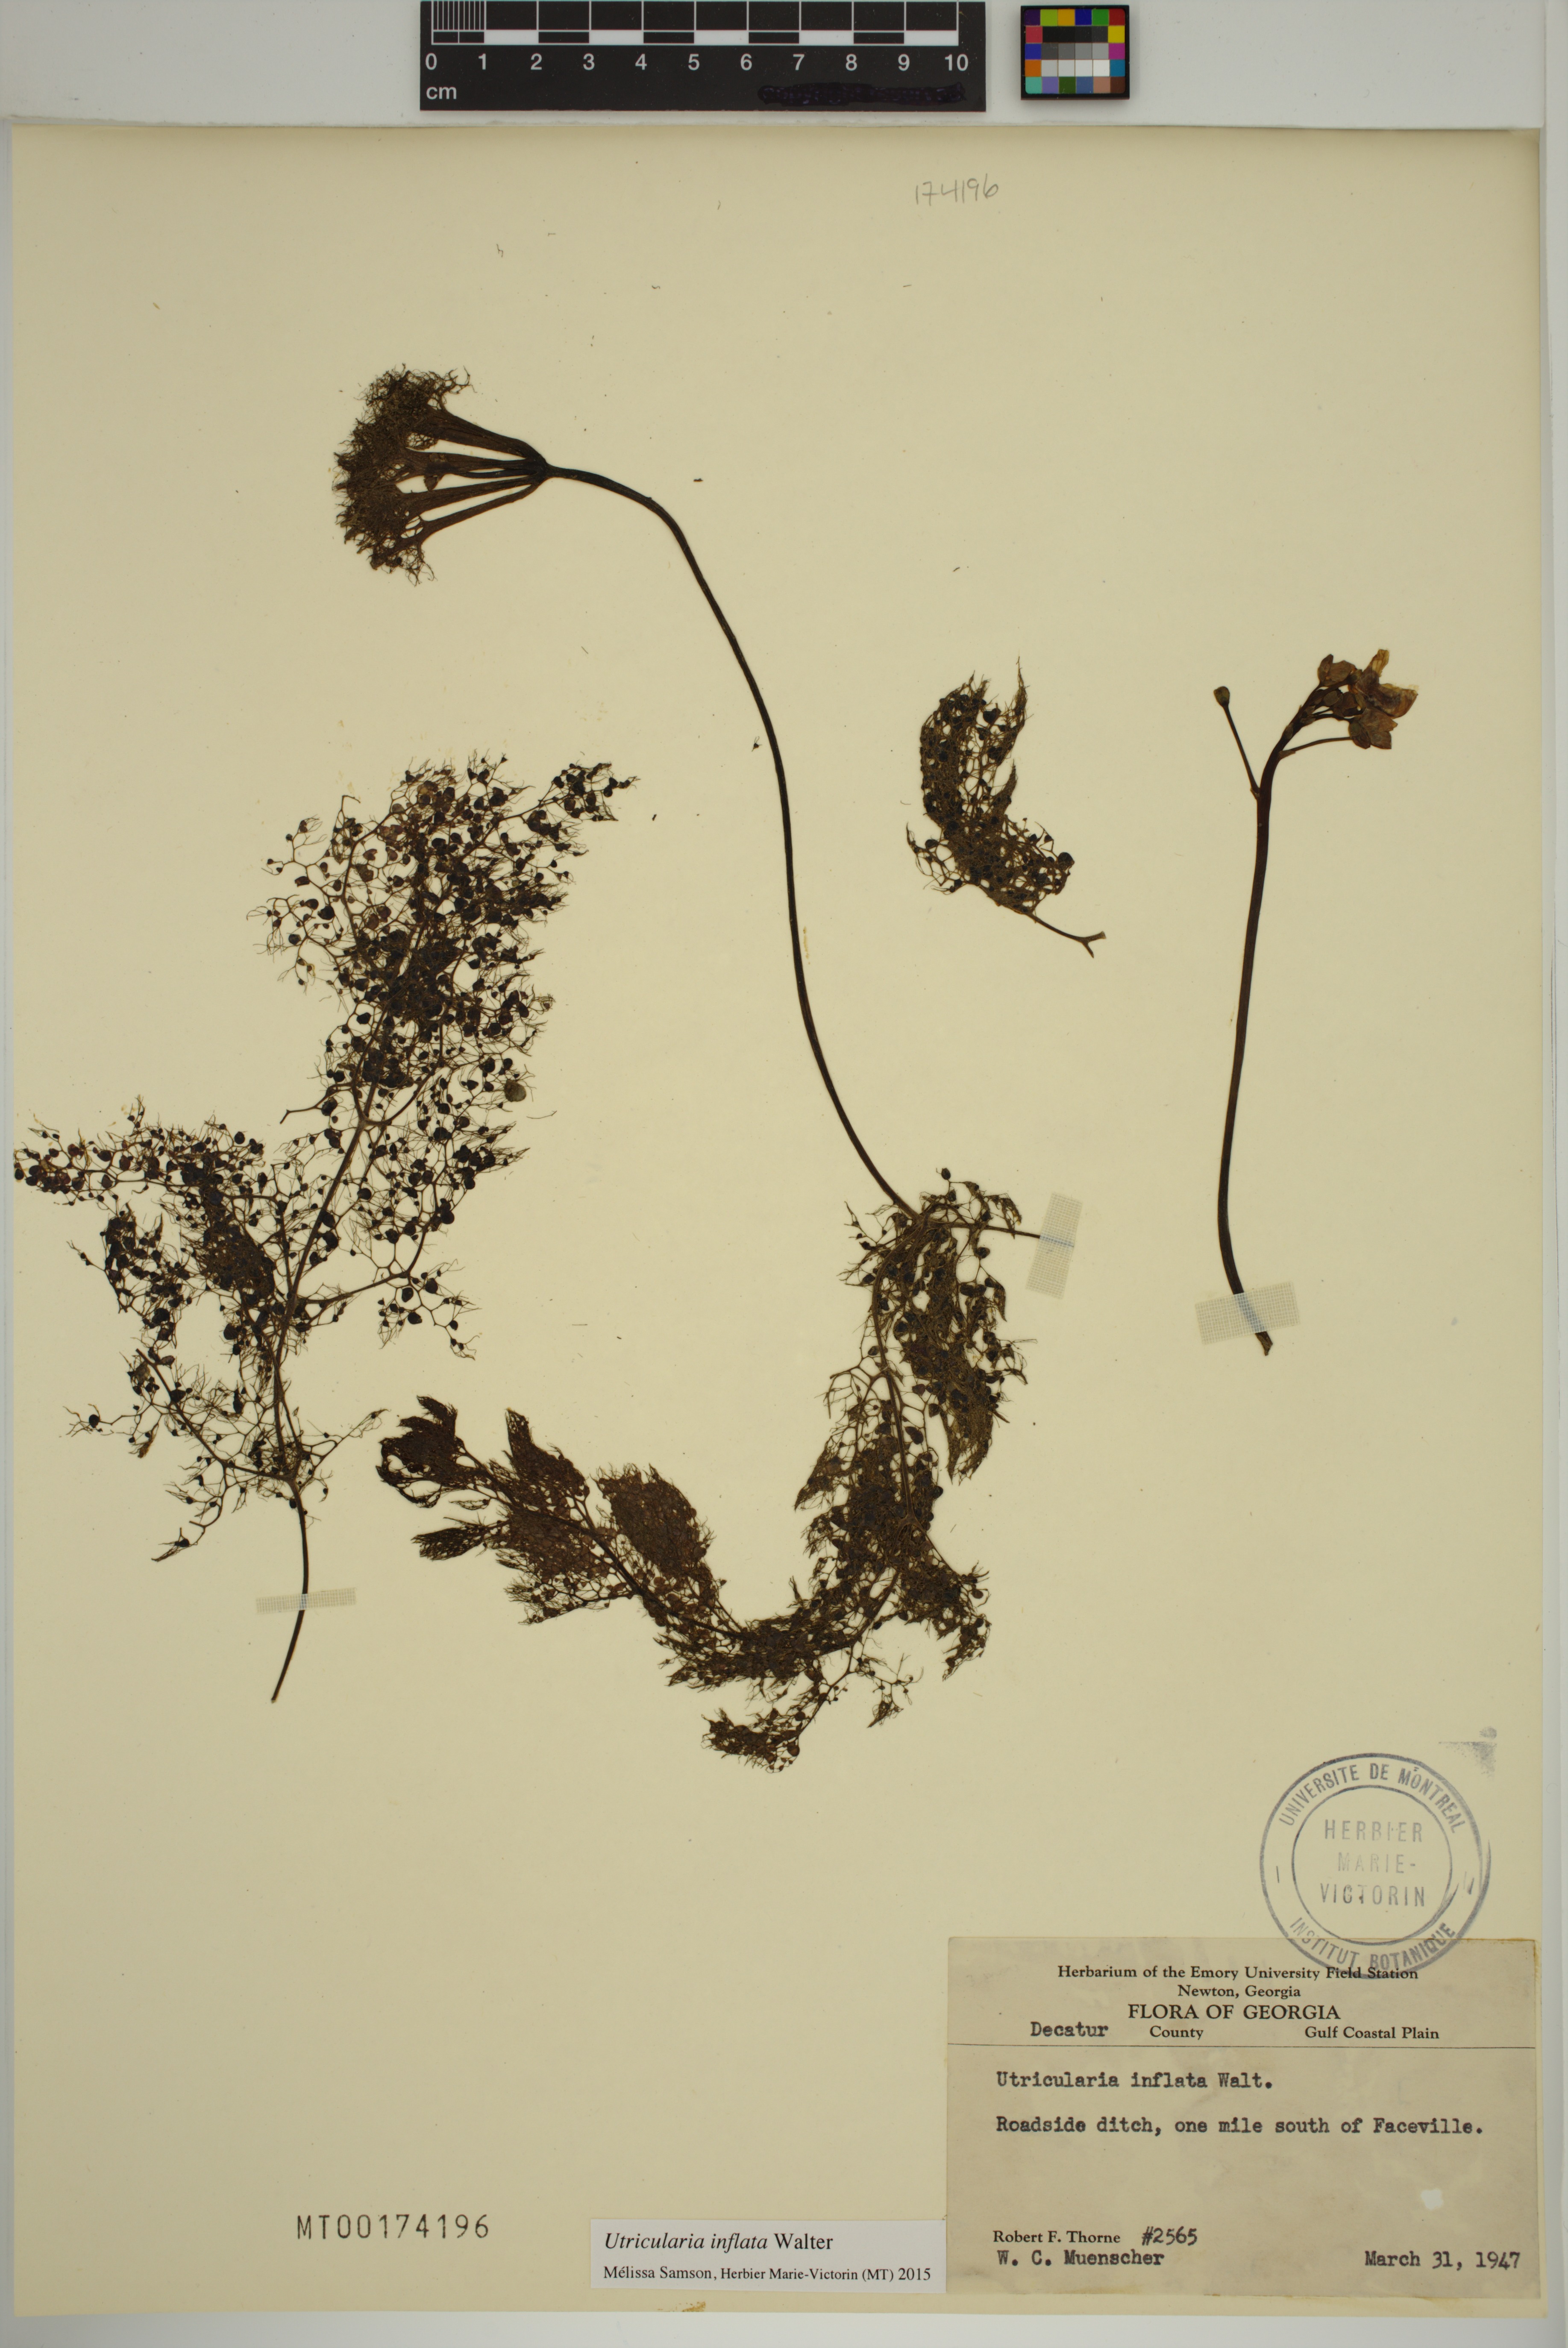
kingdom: Plantae
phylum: Tracheophyta
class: Magnoliopsida
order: Lamiales
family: Lentibulariaceae
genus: Utricularia
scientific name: Utricularia inflata
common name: Floating bladderwort
